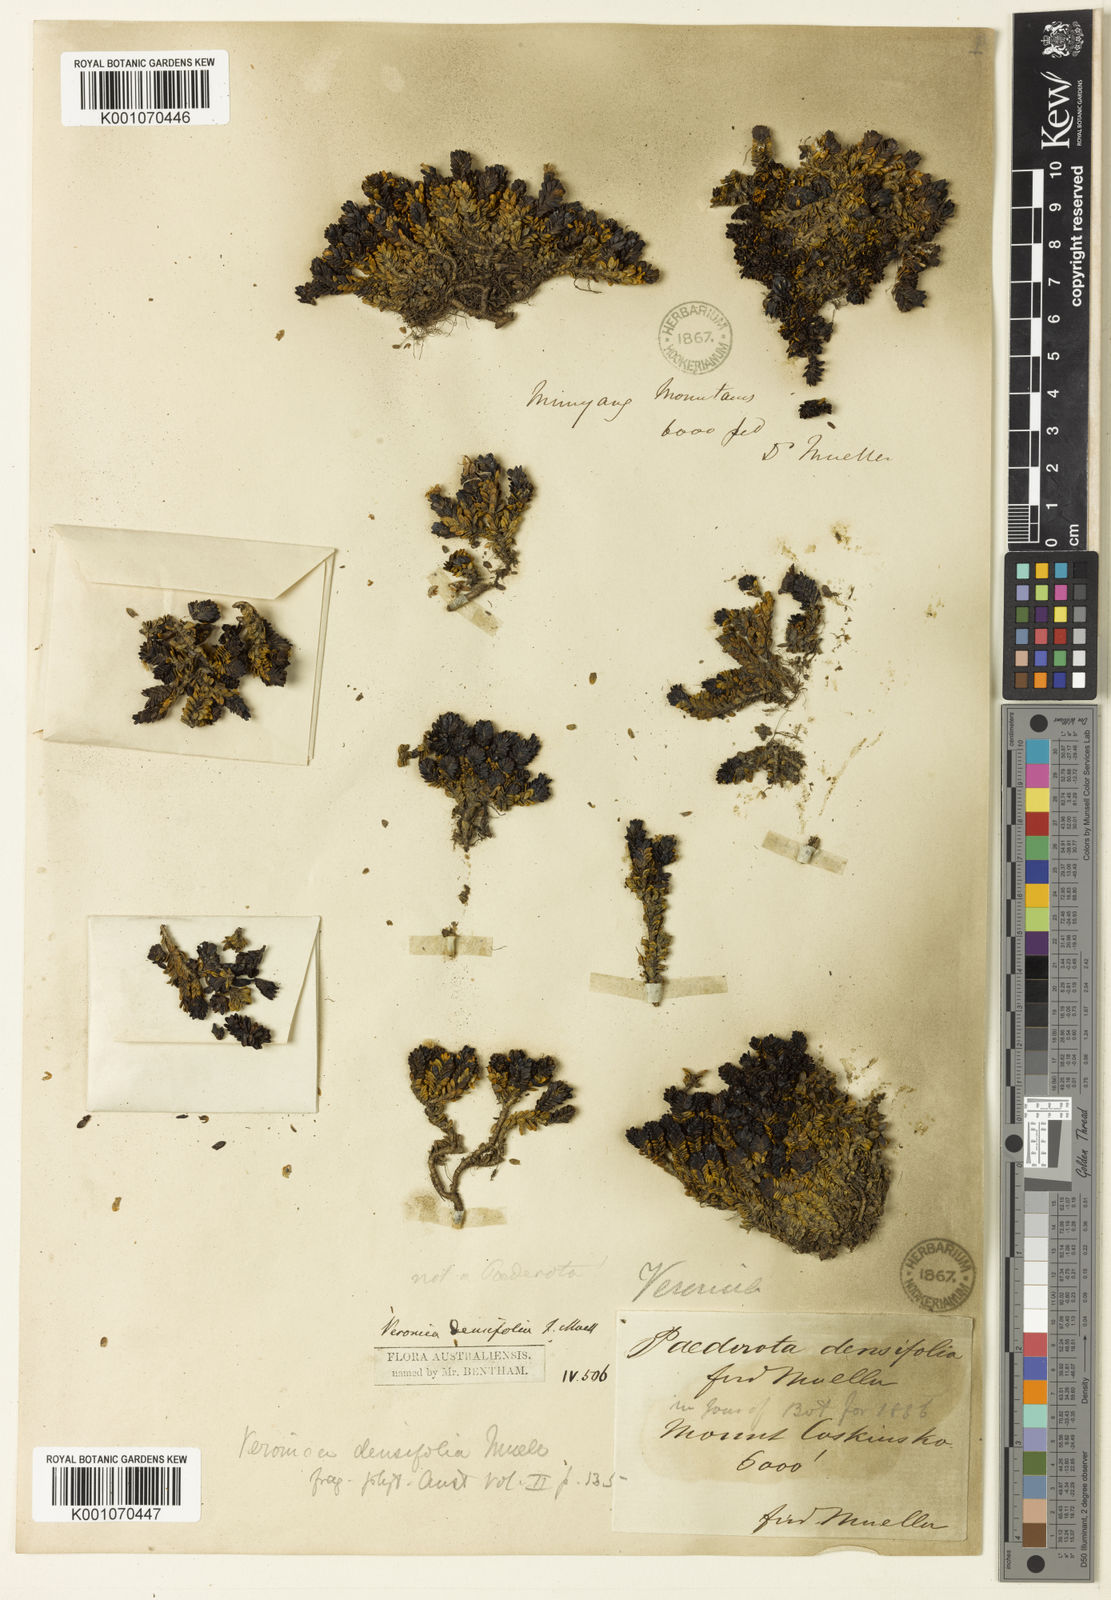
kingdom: Plantae
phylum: Tracheophyta
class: Magnoliopsida
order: Lamiales
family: Plantaginaceae
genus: Veronica
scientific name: Veronica
